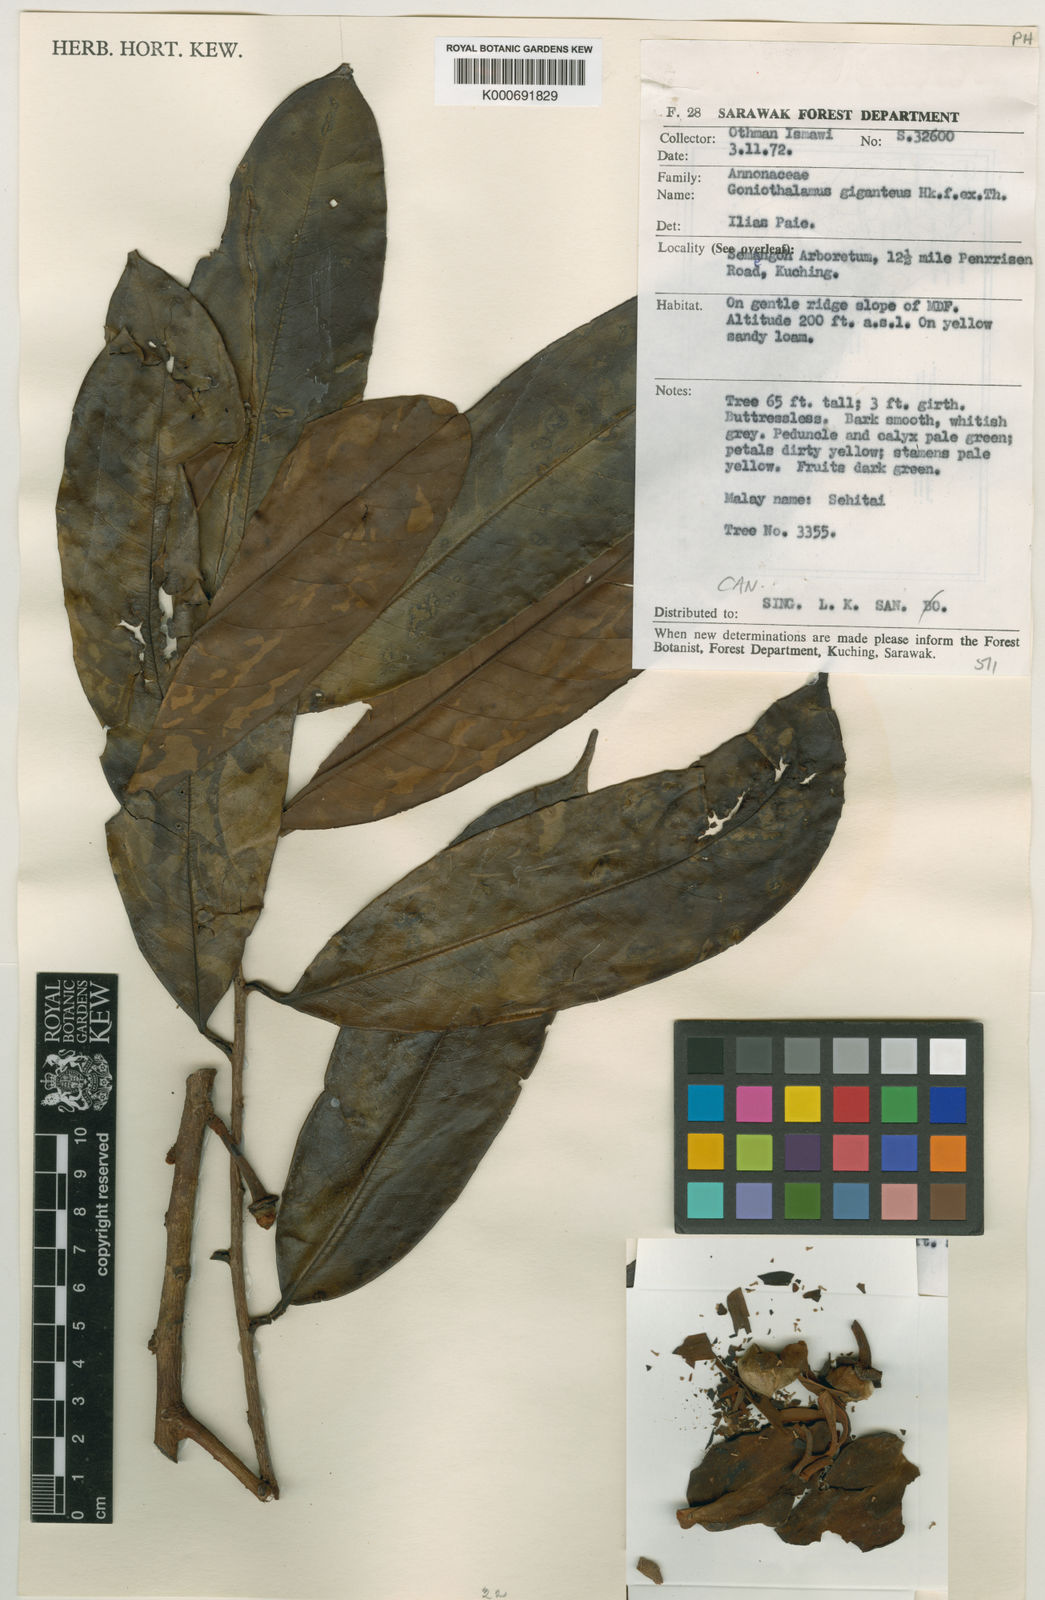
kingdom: Plantae
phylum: Tracheophyta
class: Magnoliopsida
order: Magnoliales
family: Annonaceae
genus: Goniothalamus
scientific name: Goniothalamus borneensis
